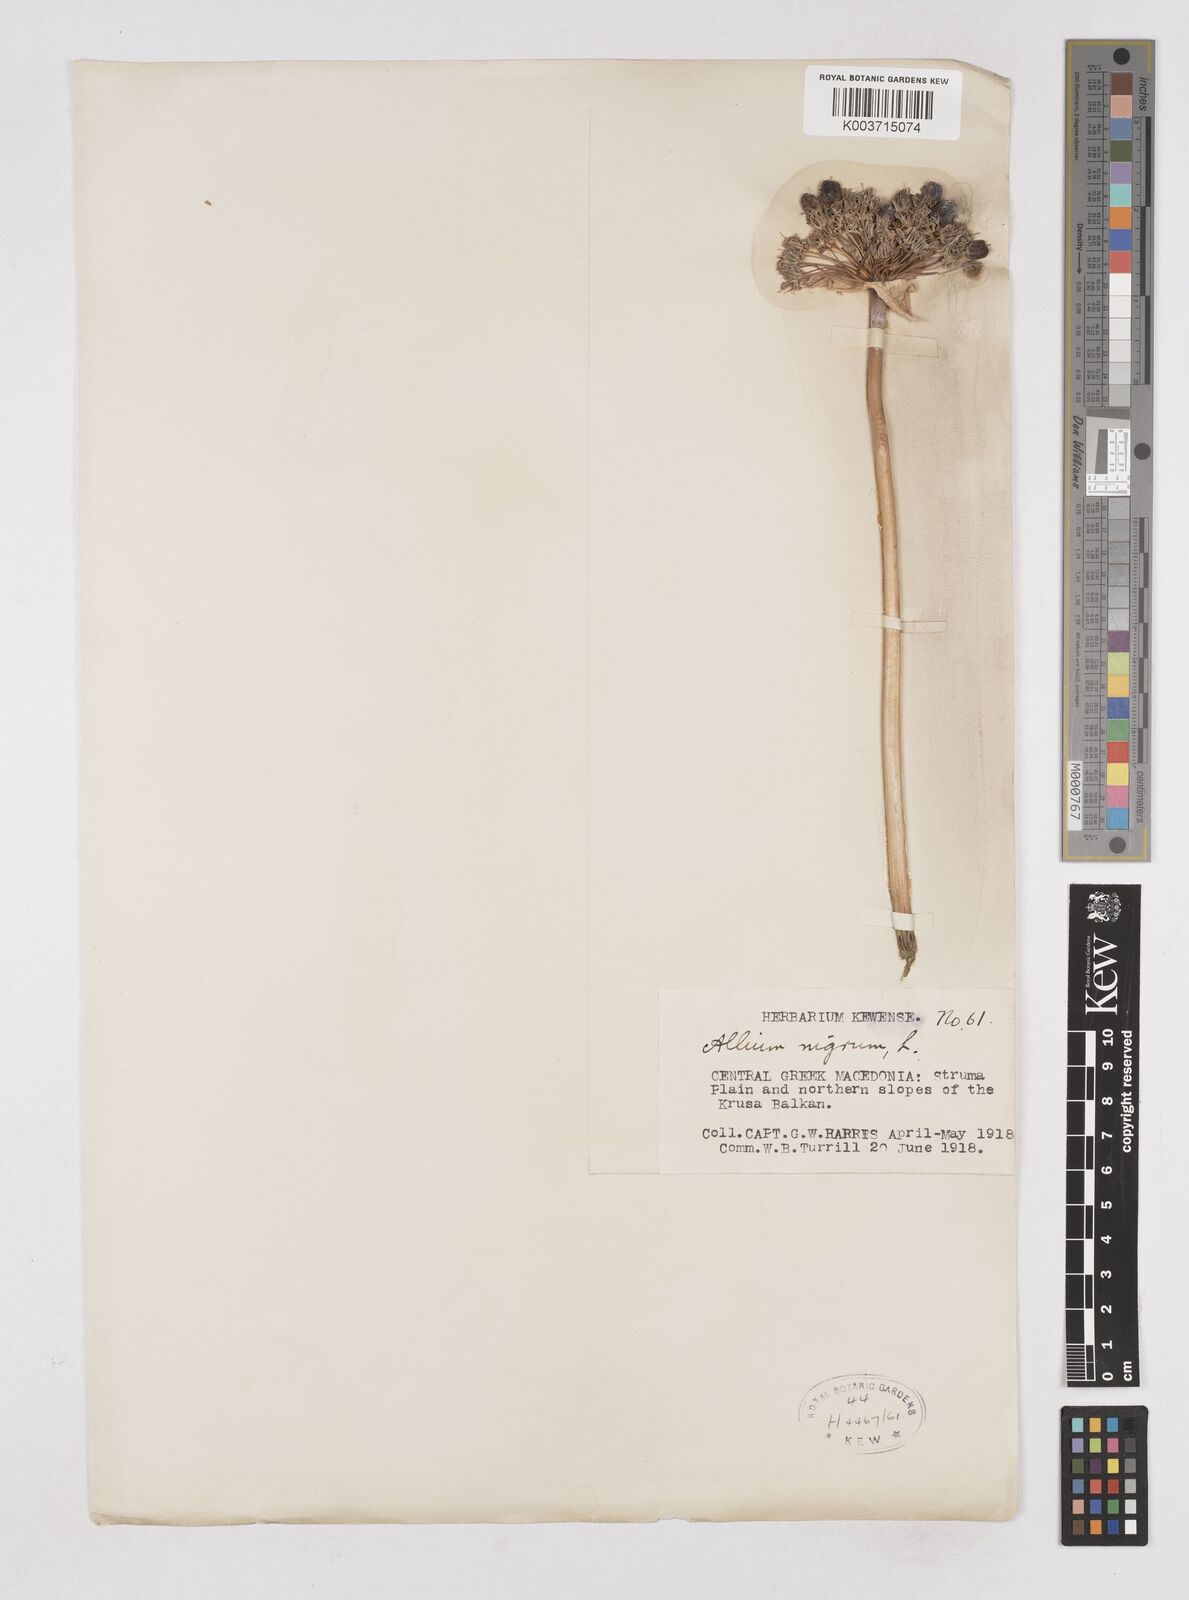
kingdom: Plantae
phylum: Tracheophyta
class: Liliopsida
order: Asparagales
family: Amaryllidaceae
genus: Allium
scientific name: Allium cyrilli
